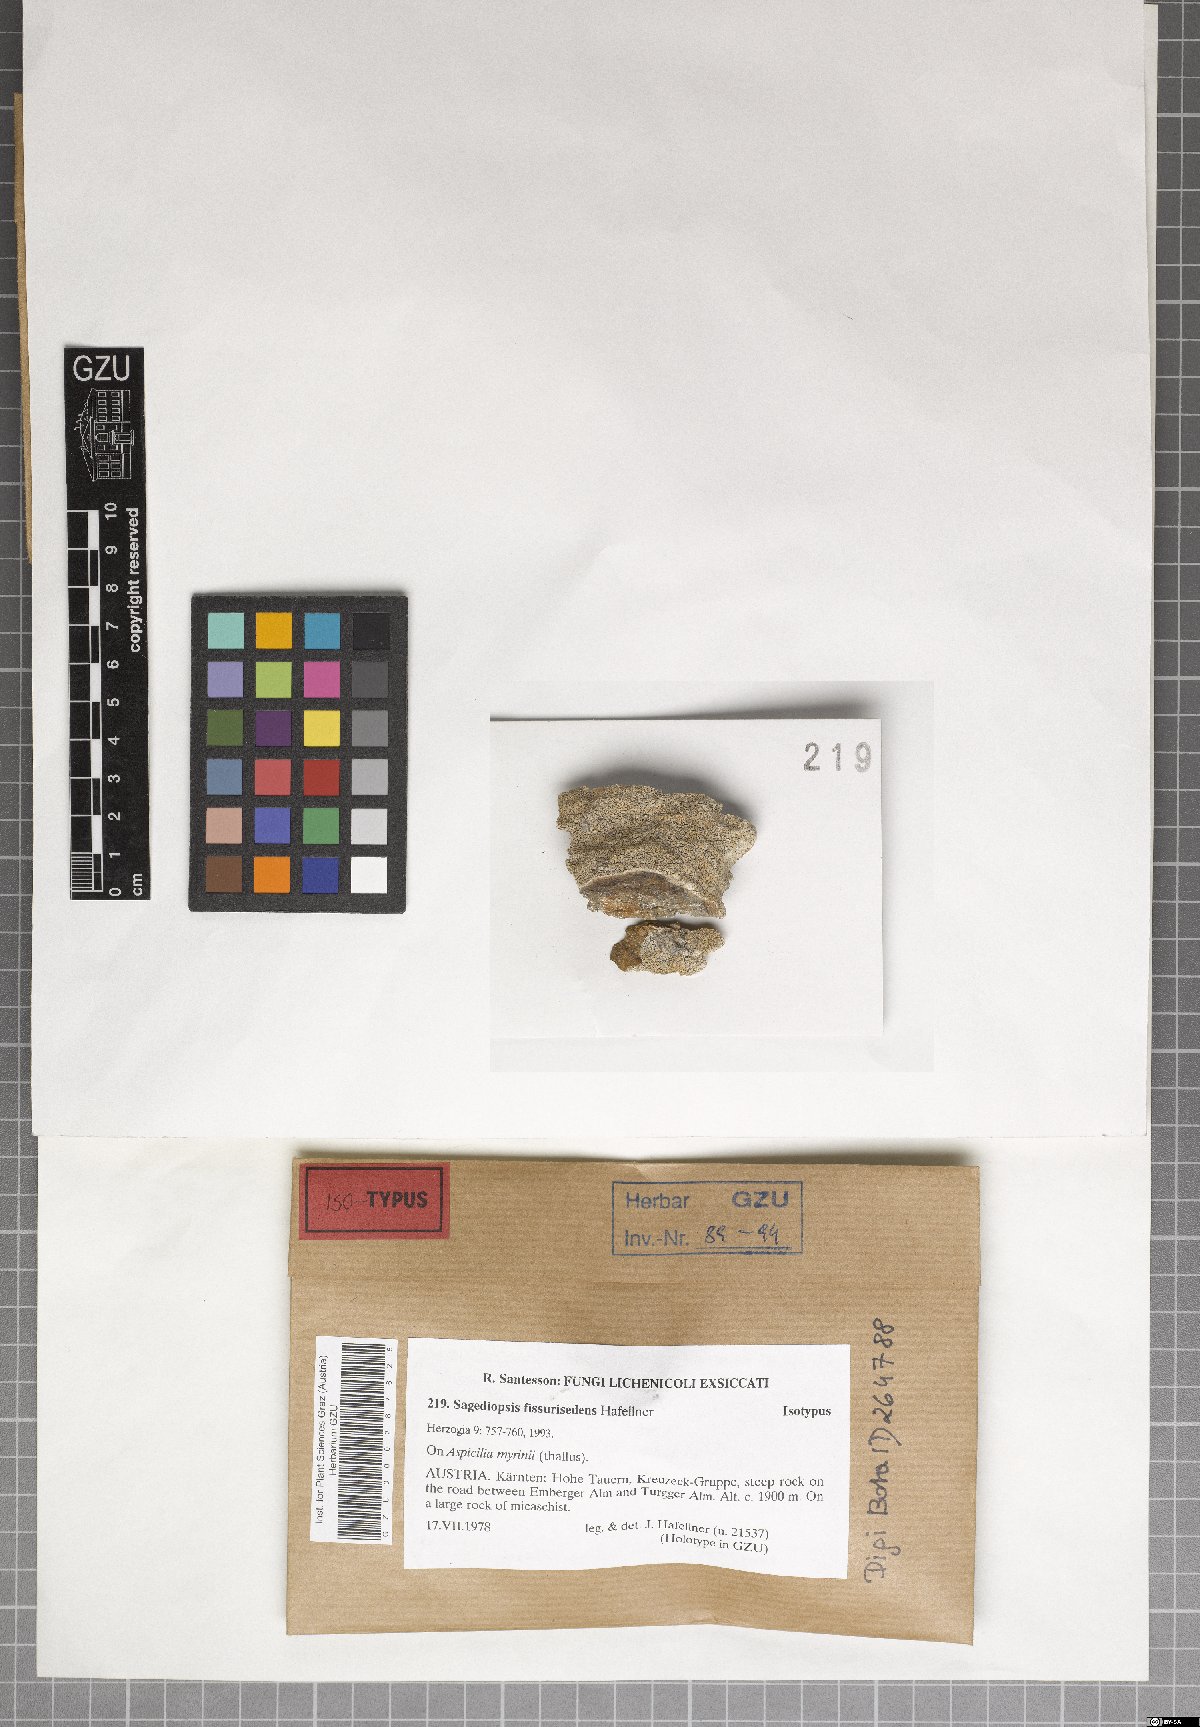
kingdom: Fungi
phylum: Ascomycota
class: Eurotiomycetes
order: Verrucariales
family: Adelococcaceae
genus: Sagediopsis
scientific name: Sagediopsis fissurisedens
